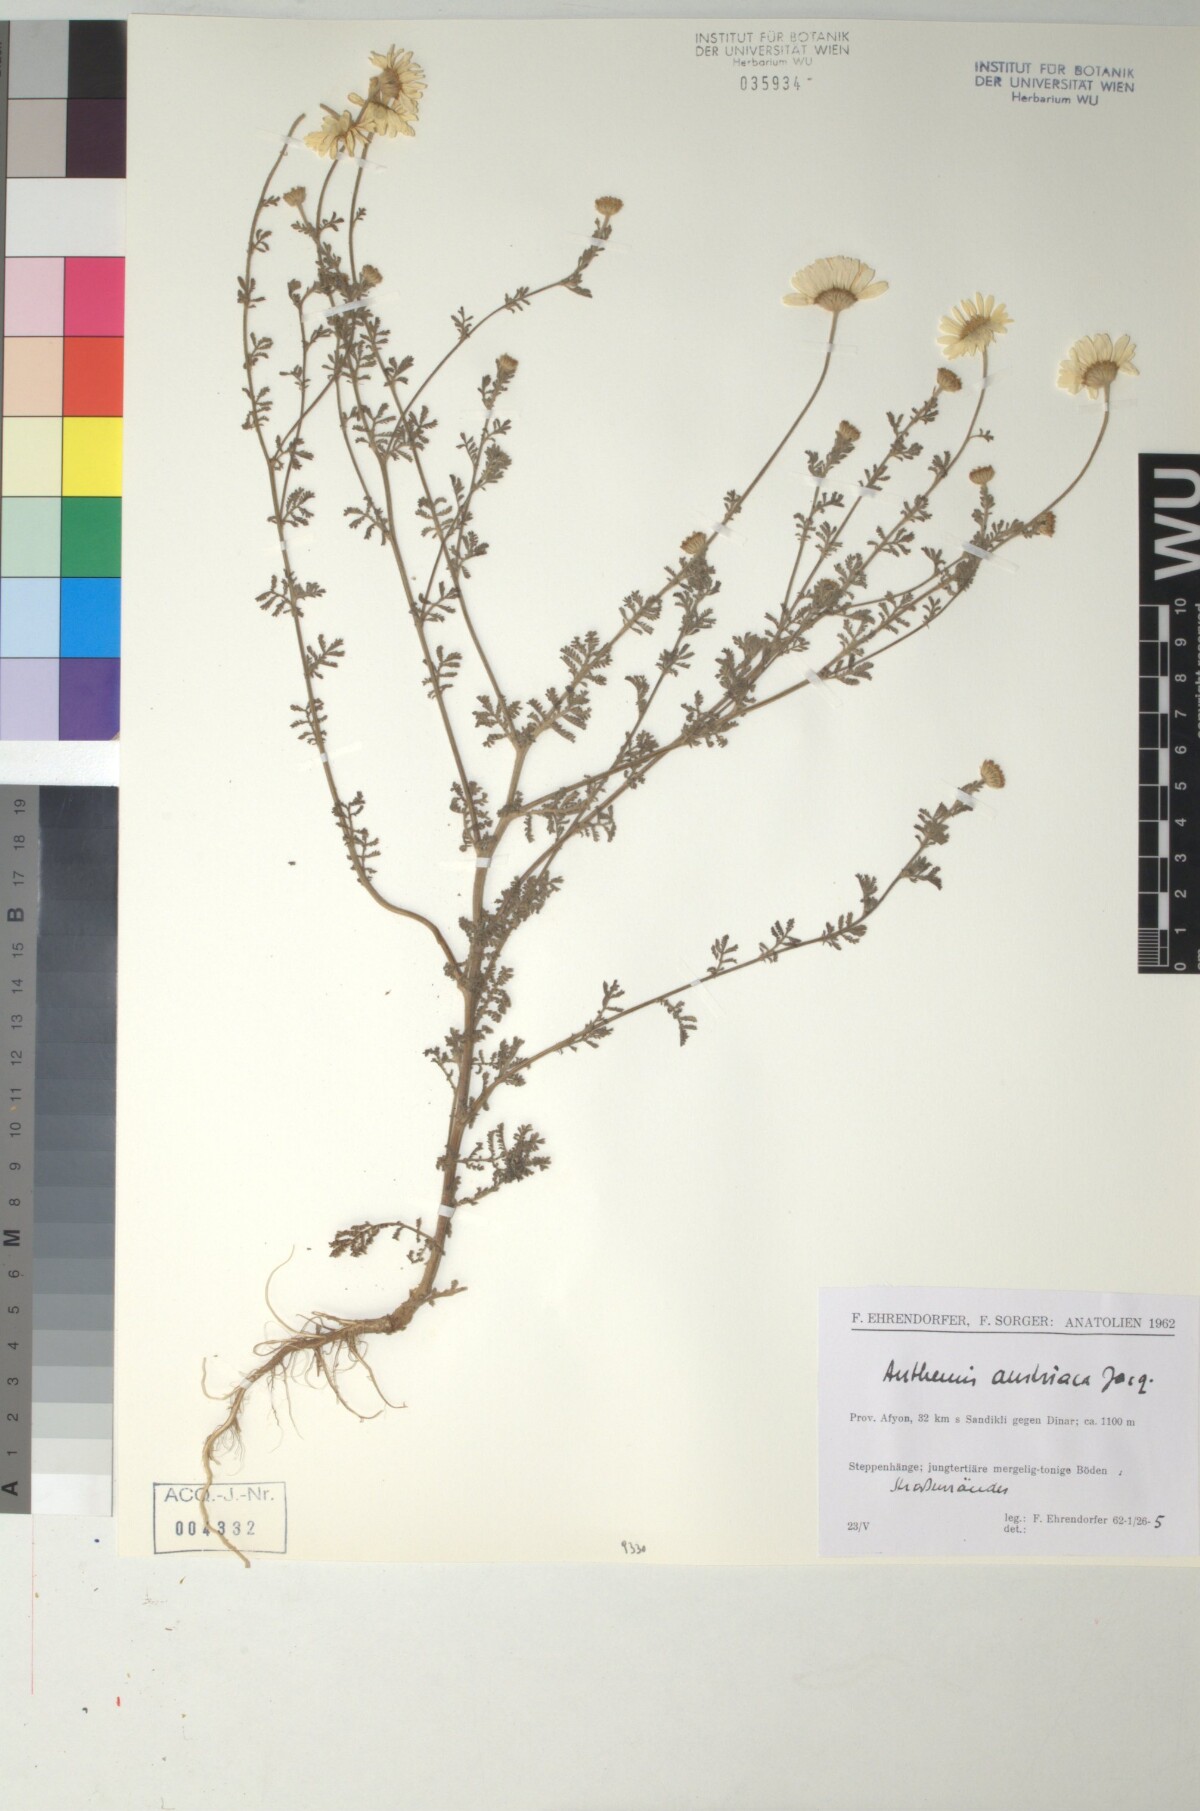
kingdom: Plantae
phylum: Tracheophyta
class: Magnoliopsida
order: Asterales
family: Asteraceae
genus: Cota
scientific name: Cota austriaca
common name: Austrian chamomile
